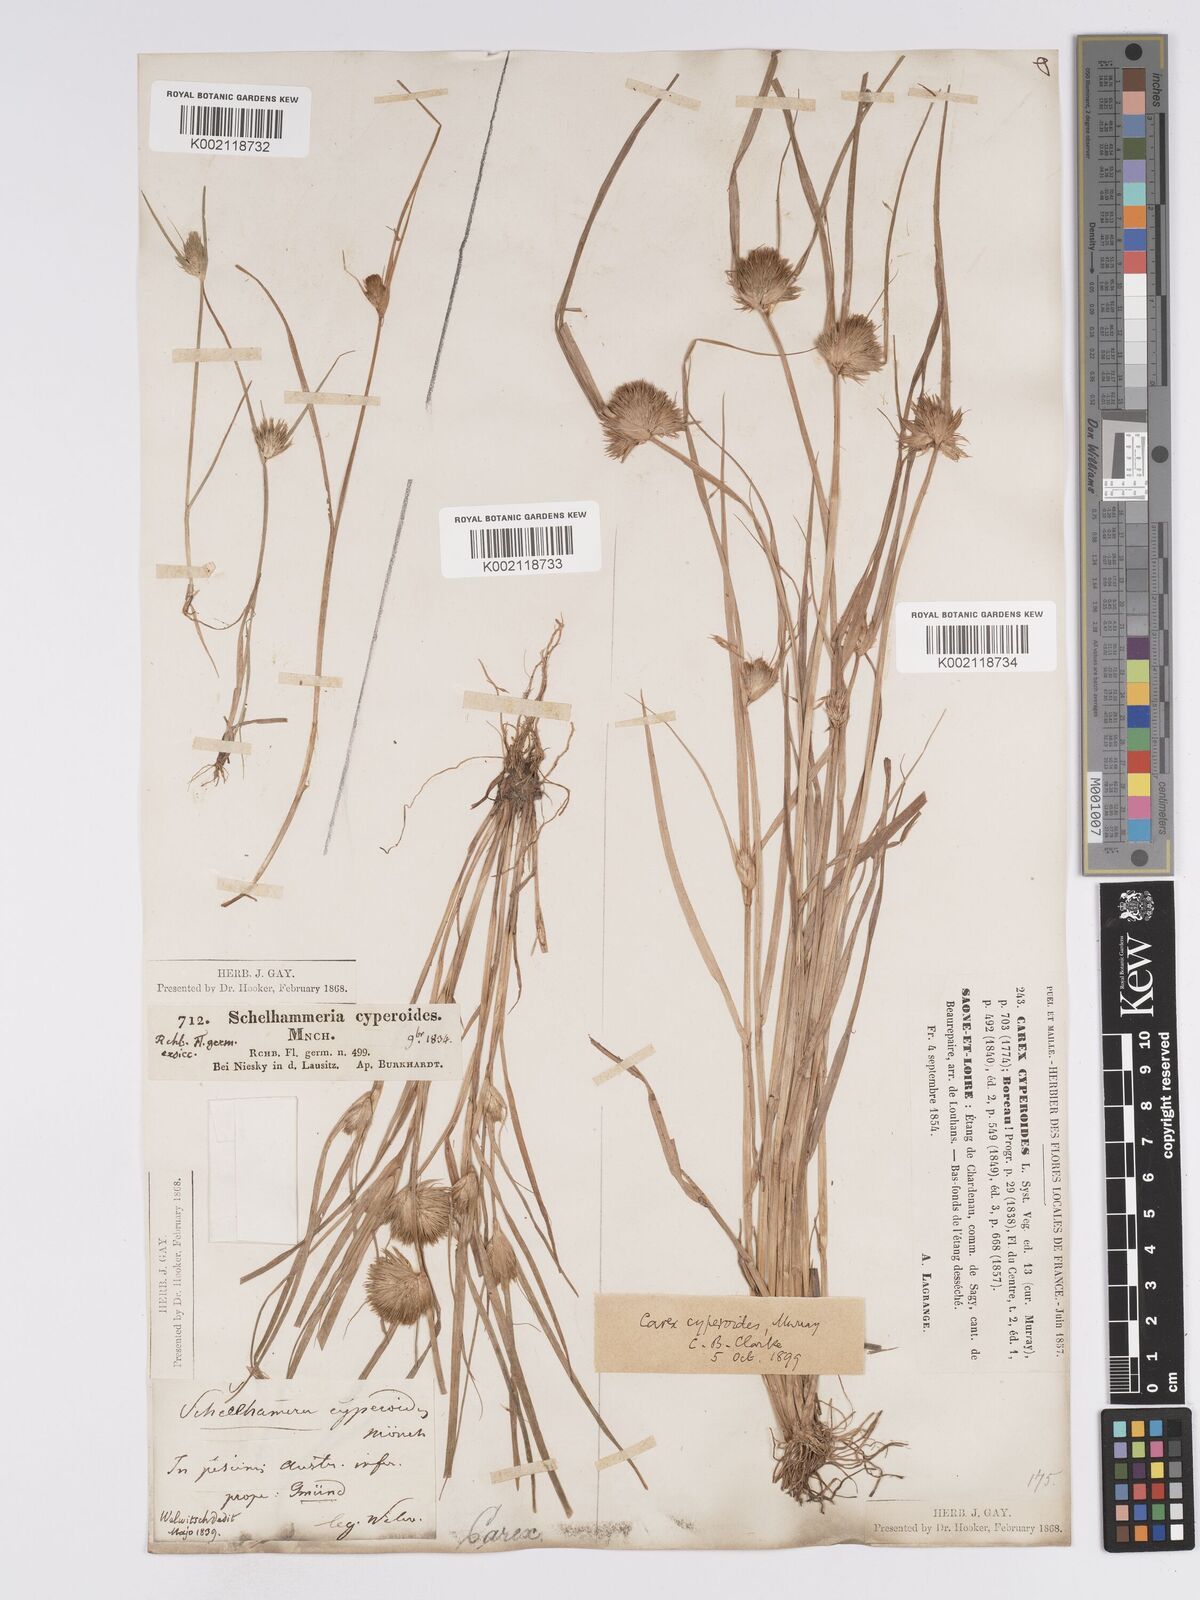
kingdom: Plantae
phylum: Tracheophyta
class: Liliopsida
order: Poales
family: Cyperaceae
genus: Carex
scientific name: Carex bohemica
